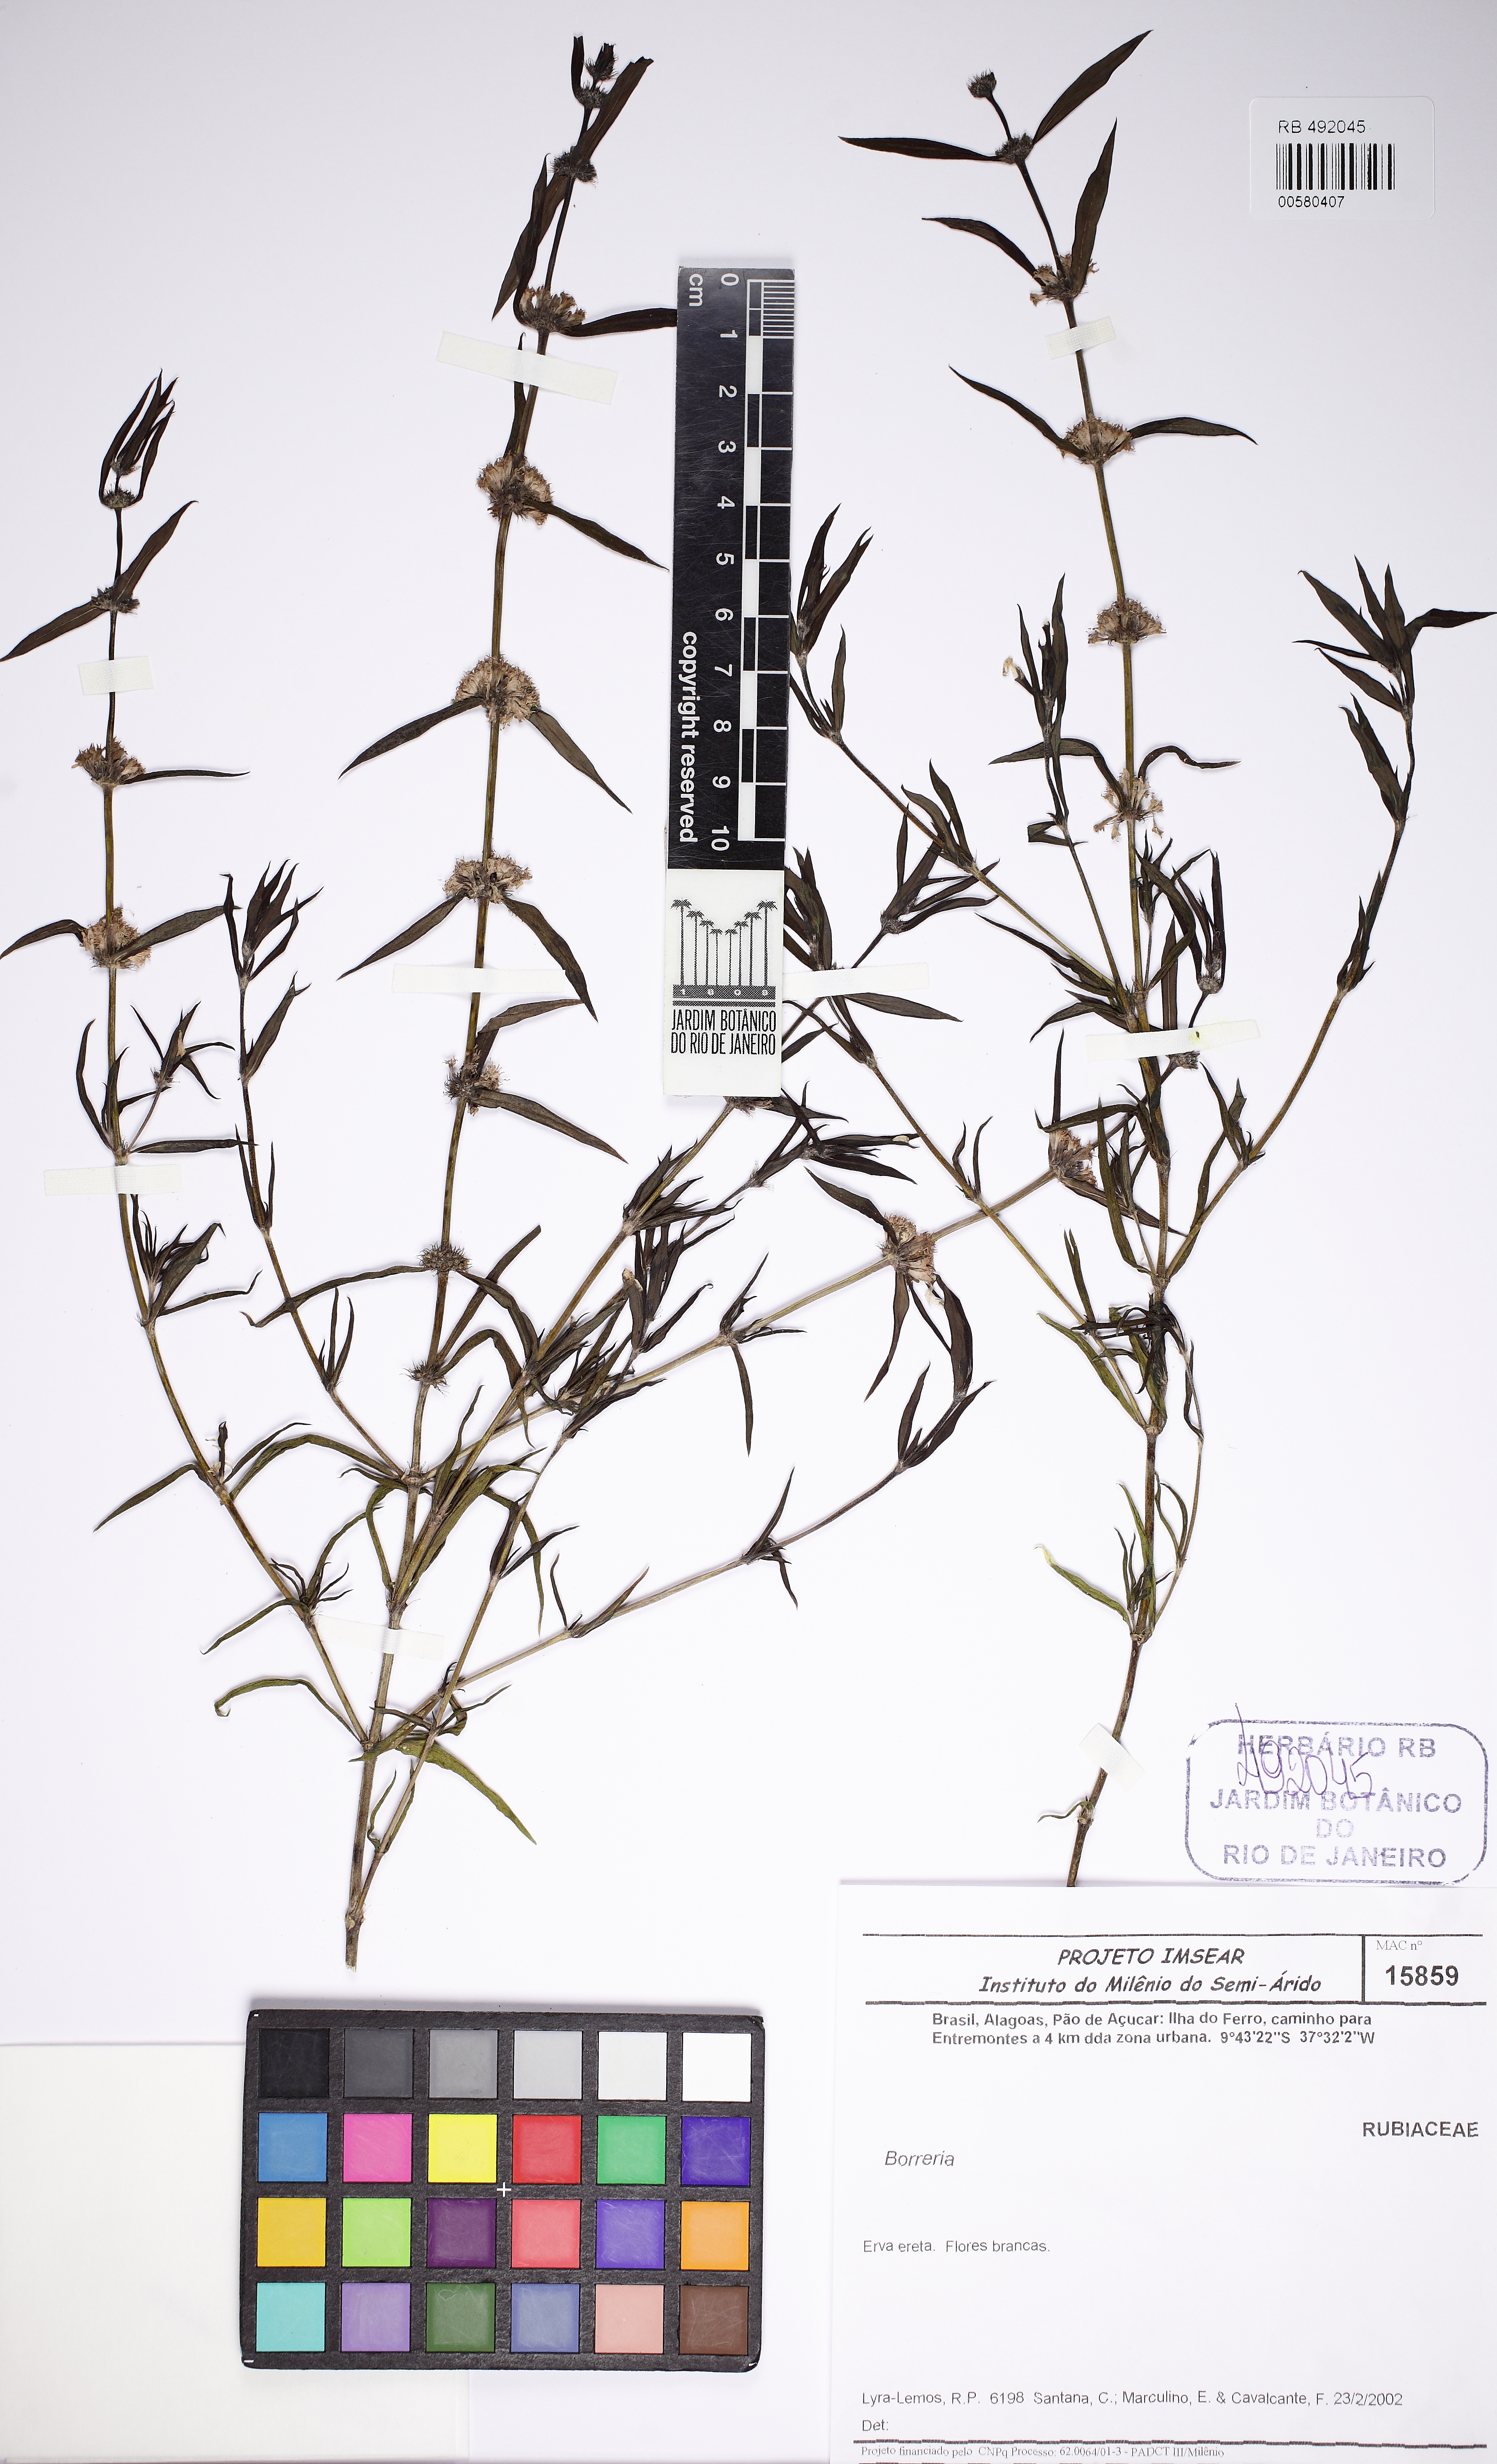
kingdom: Plantae
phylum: Tracheophyta
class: Magnoliopsida
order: Gentianales
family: Rubiaceae
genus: Staelia
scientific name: Staelia virgata
